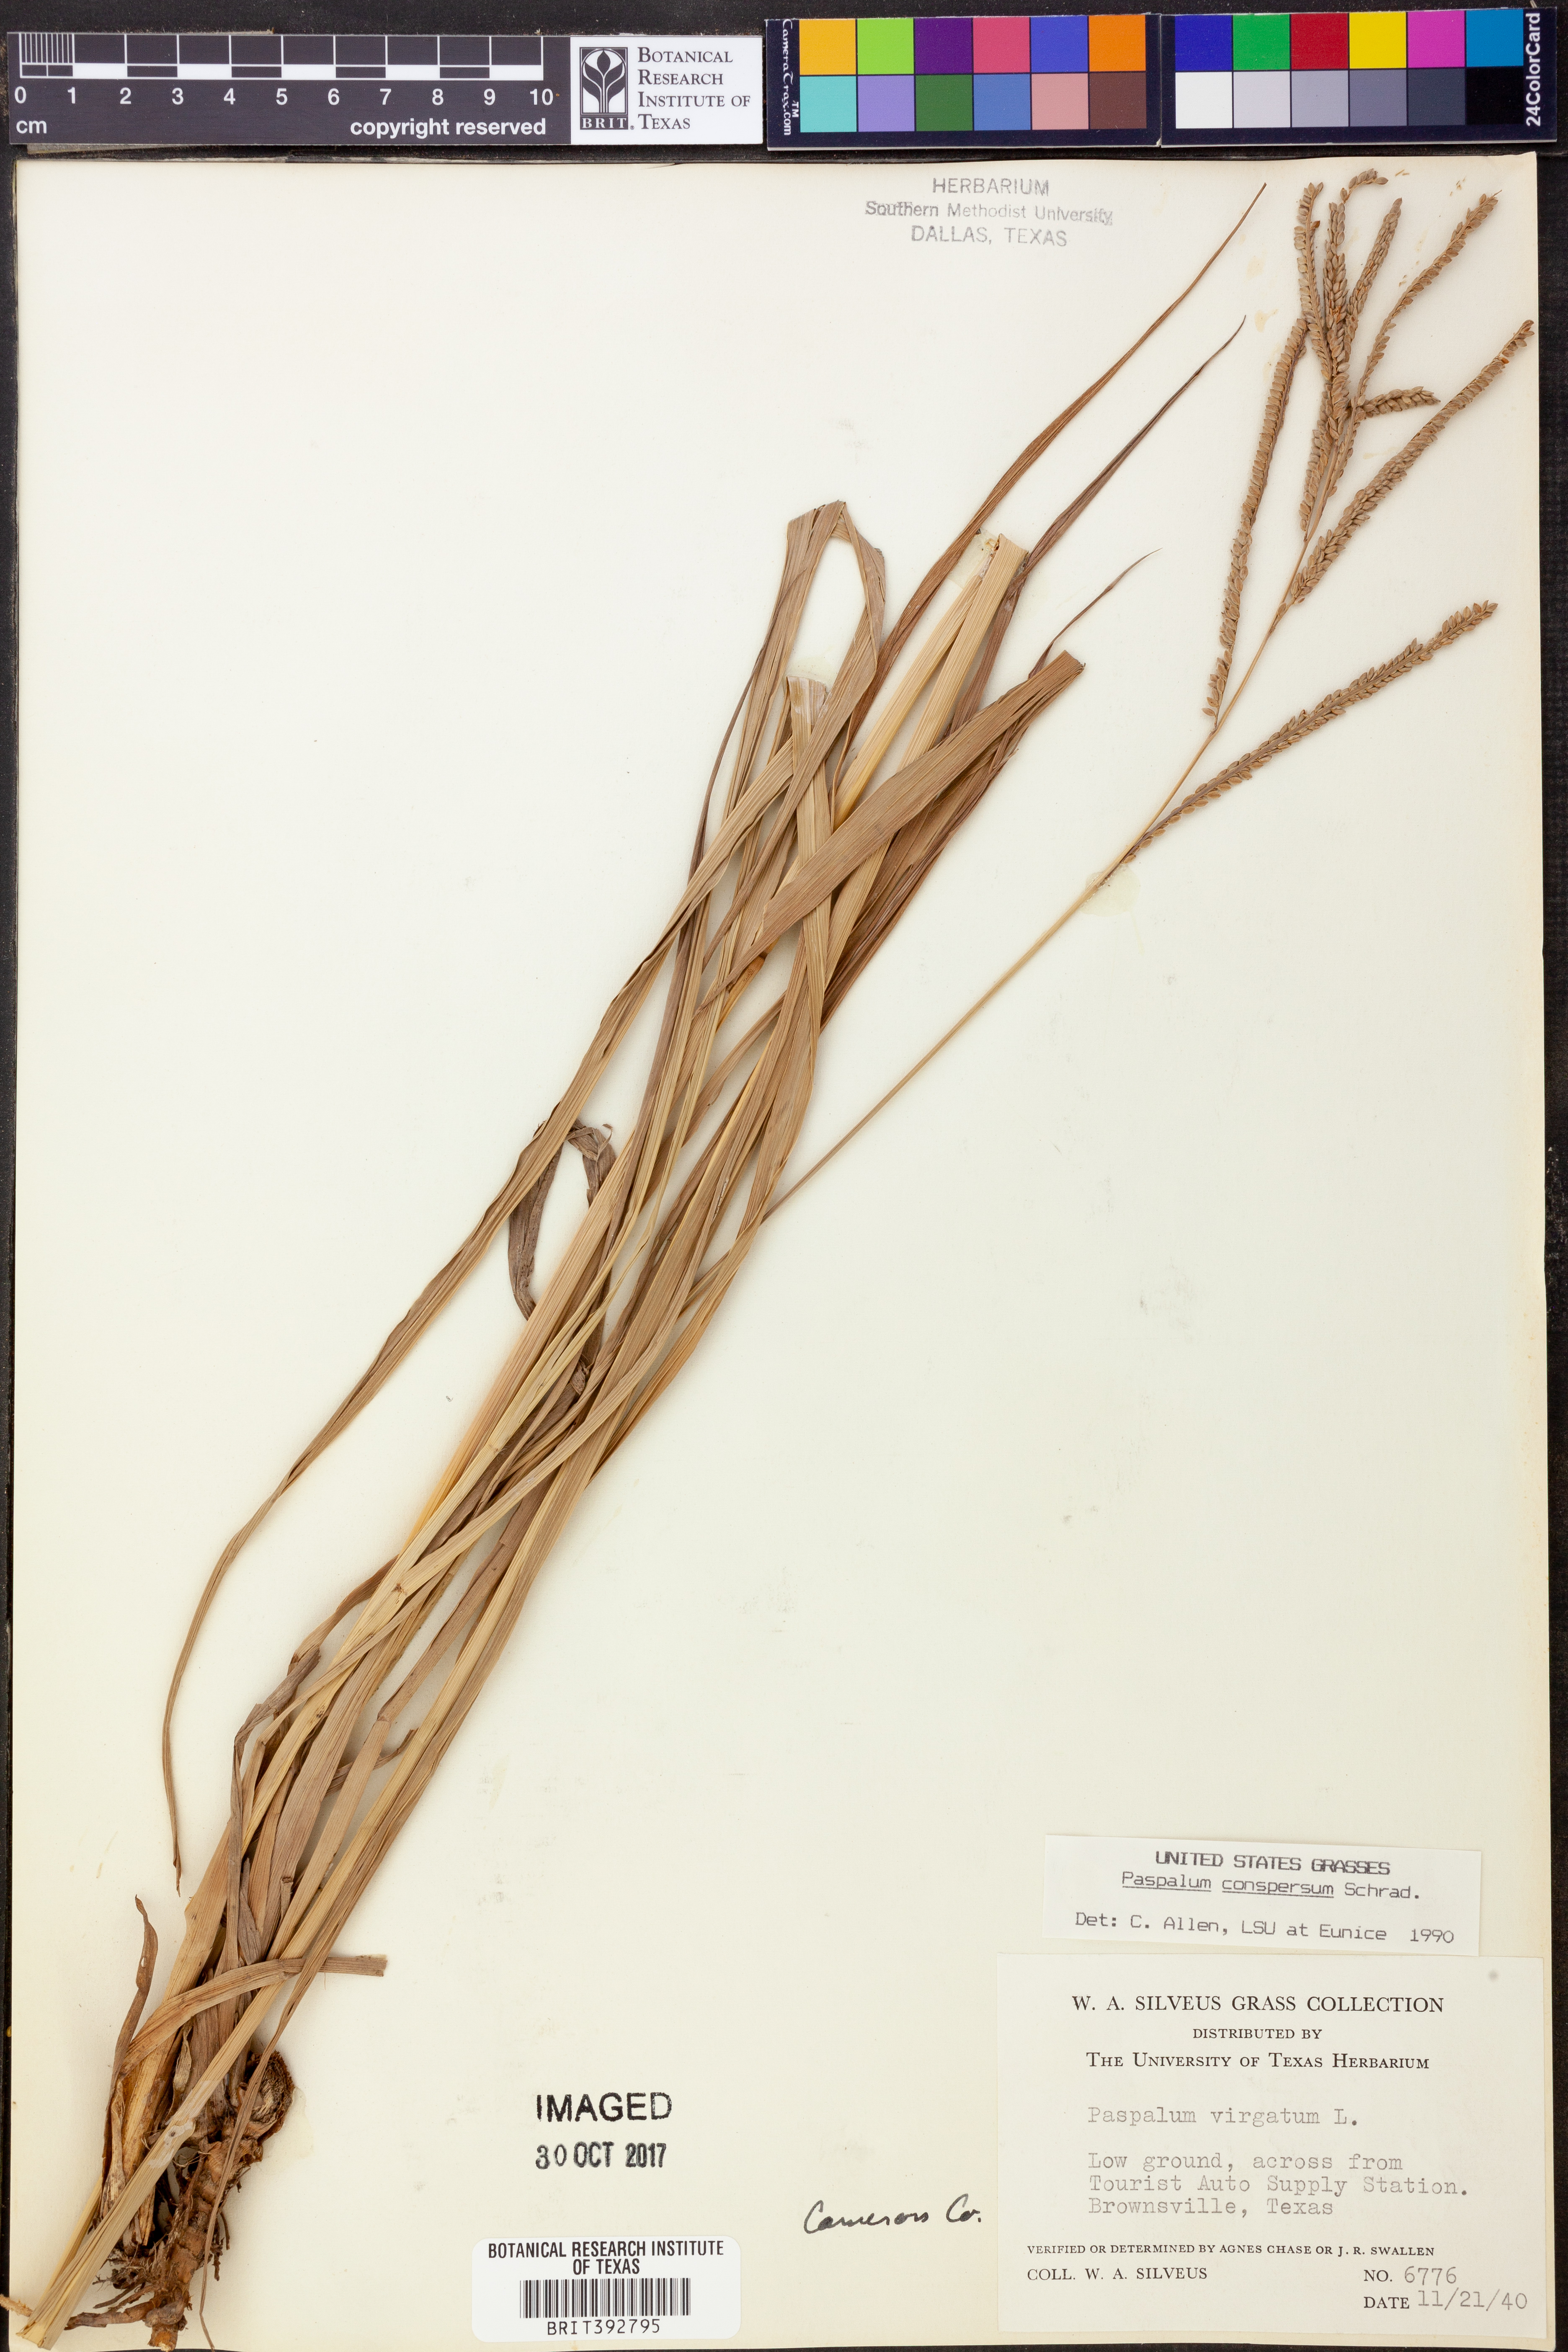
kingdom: Plantae
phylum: Tracheophyta
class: Liliopsida
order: Poales
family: Poaceae
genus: Paspalum
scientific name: Paspalum conspersum
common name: Scattered paspalum
